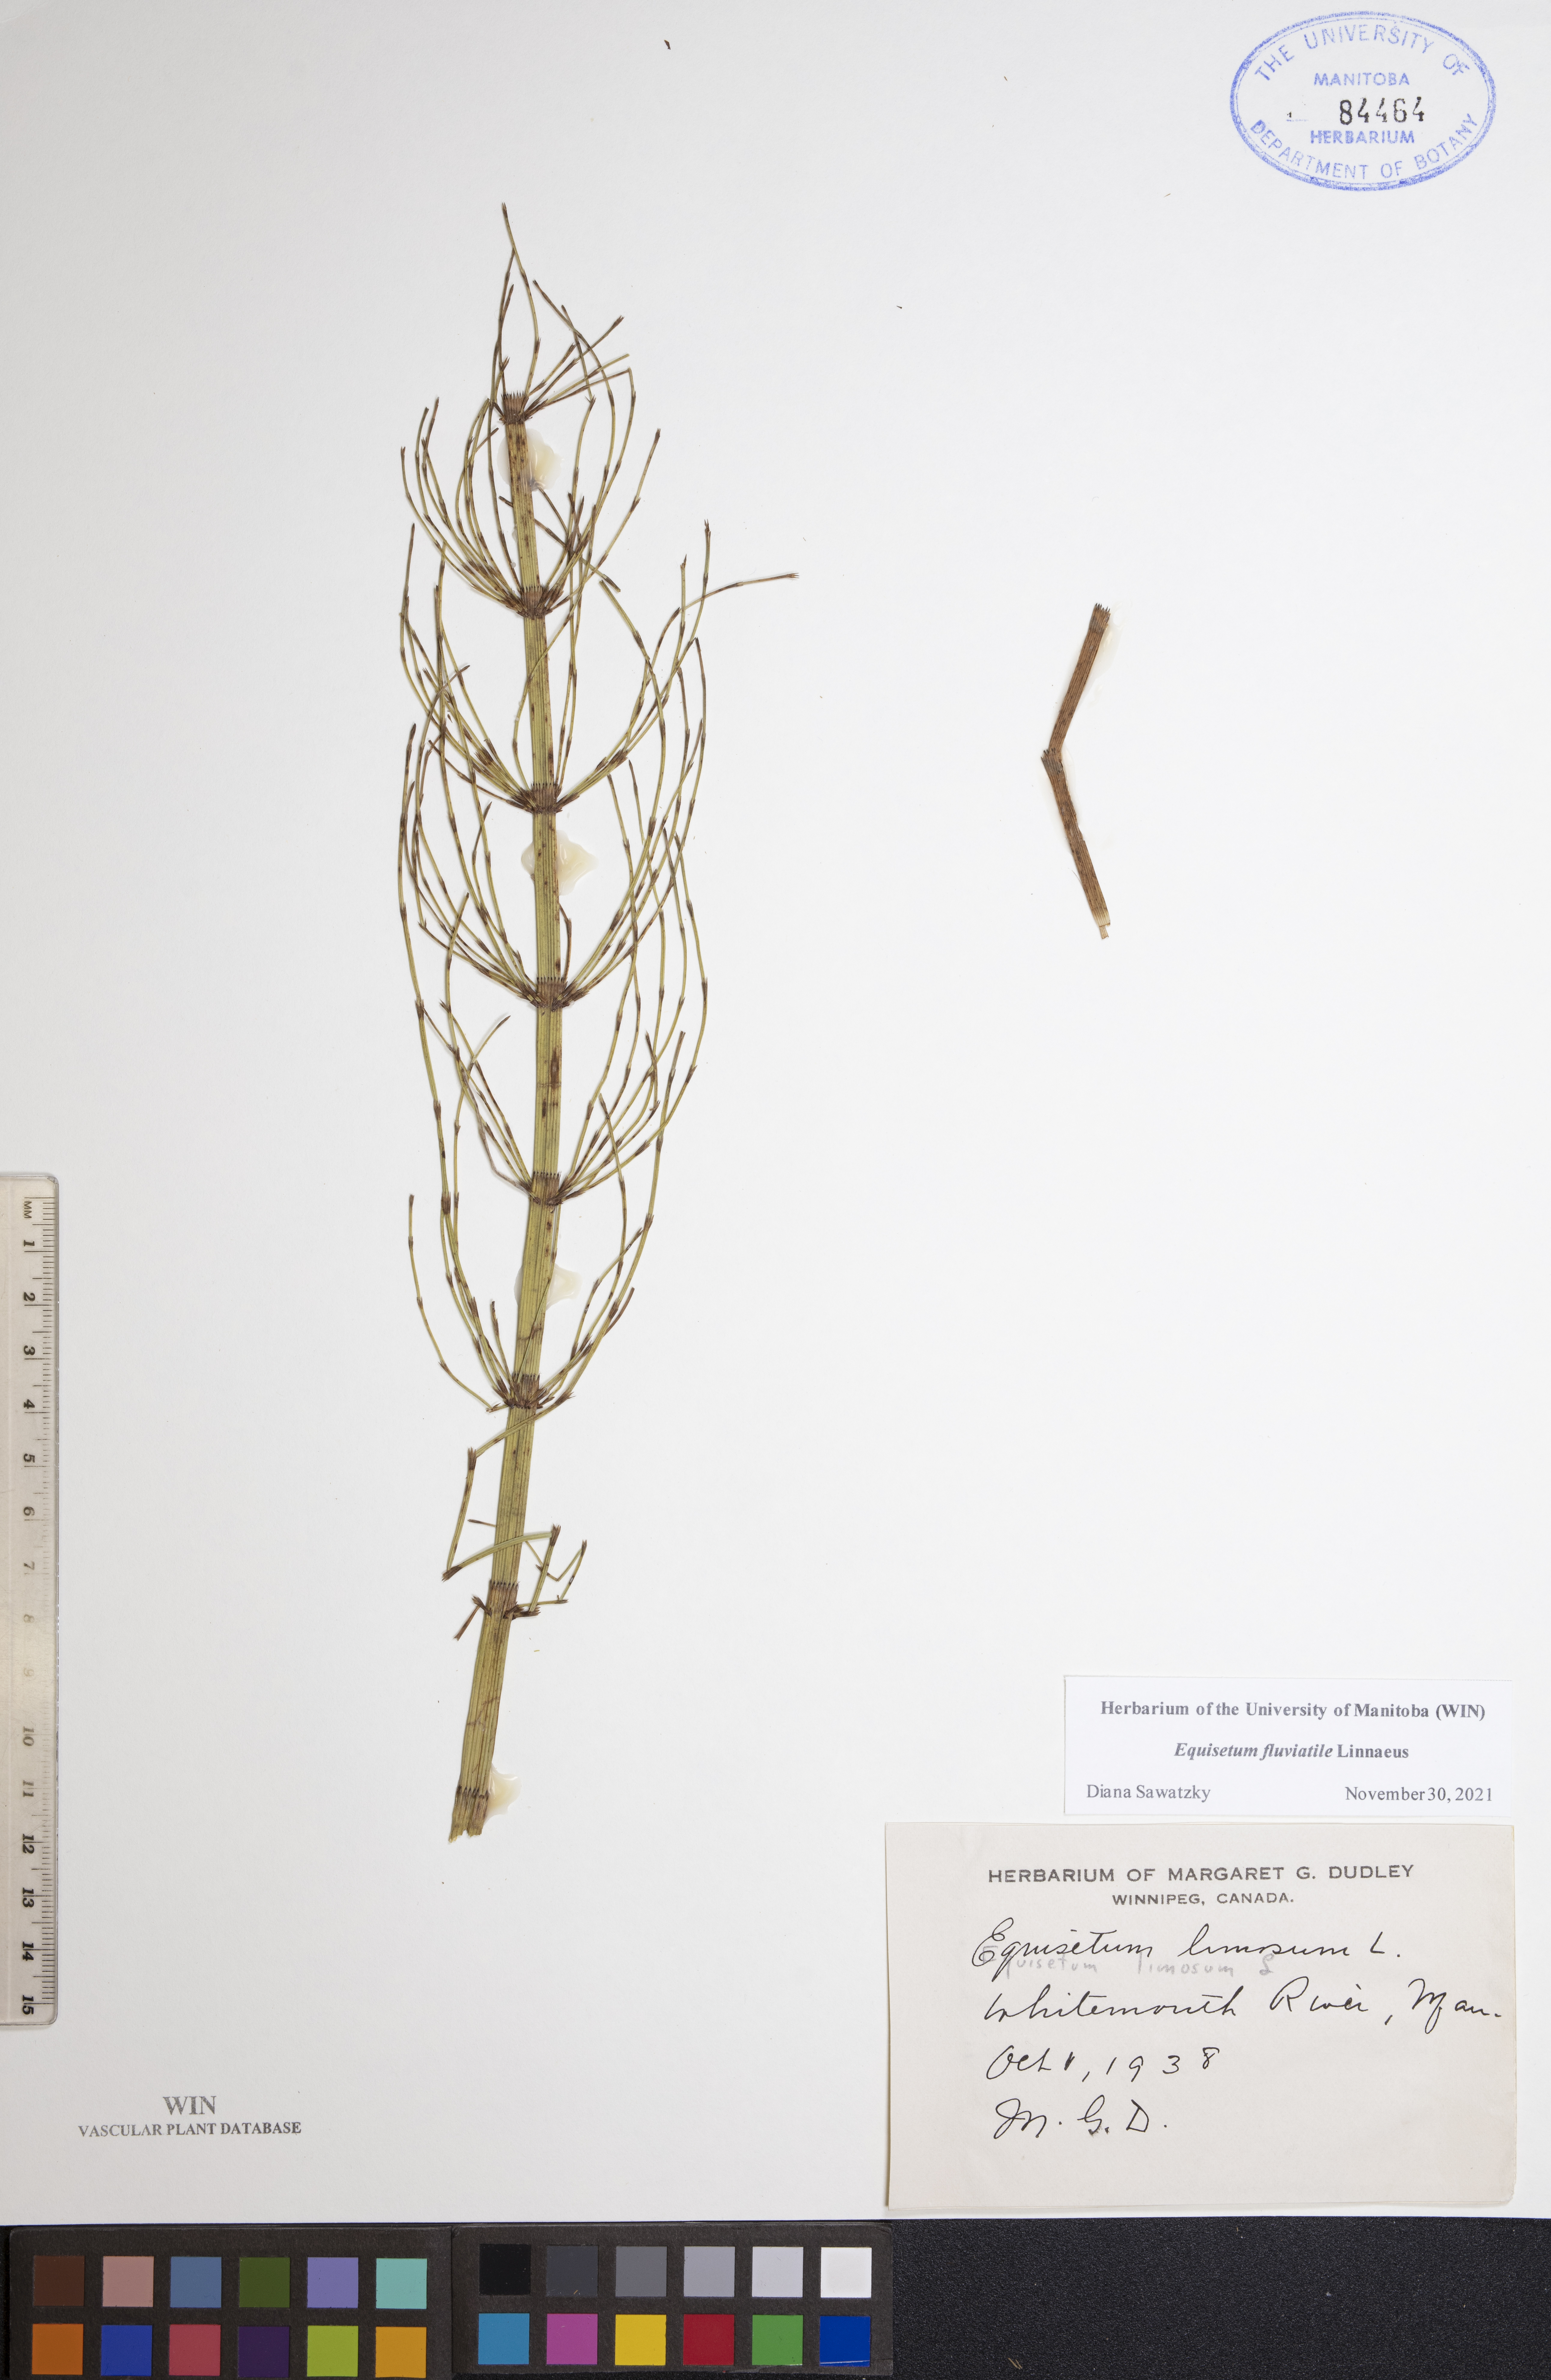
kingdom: Plantae
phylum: Tracheophyta
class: Polypodiopsida
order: Equisetales
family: Equisetaceae
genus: Equisetum
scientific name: Equisetum fluviatile
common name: Water horsetail
